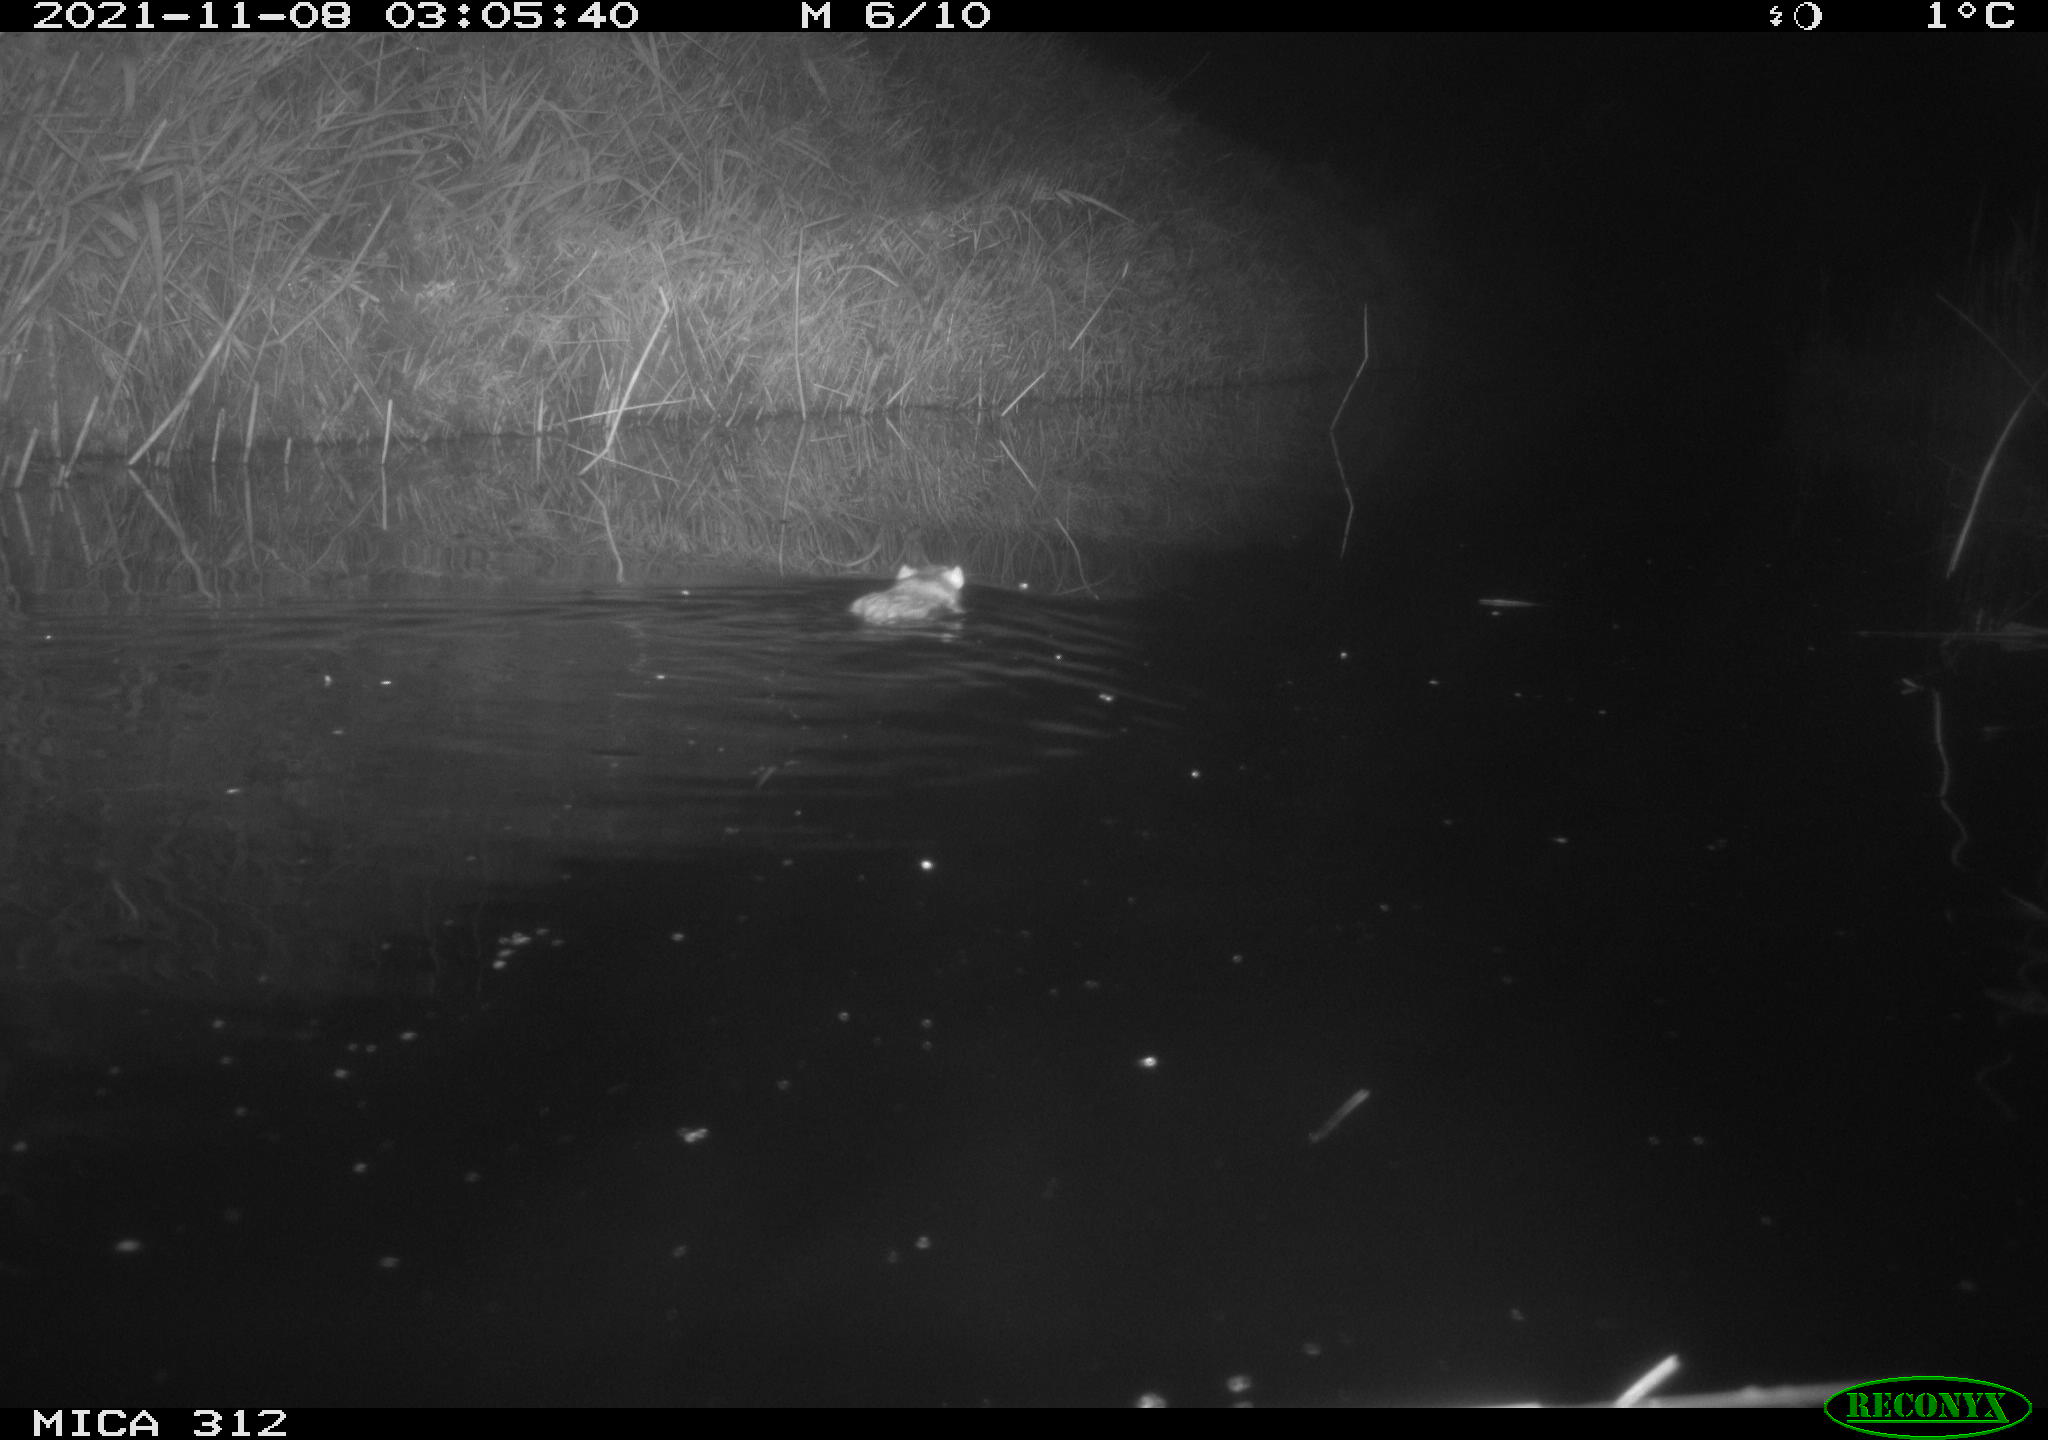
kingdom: Animalia
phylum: Chordata
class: Mammalia
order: Rodentia
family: Muridae
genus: Rattus
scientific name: Rattus norvegicus
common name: Brown rat
